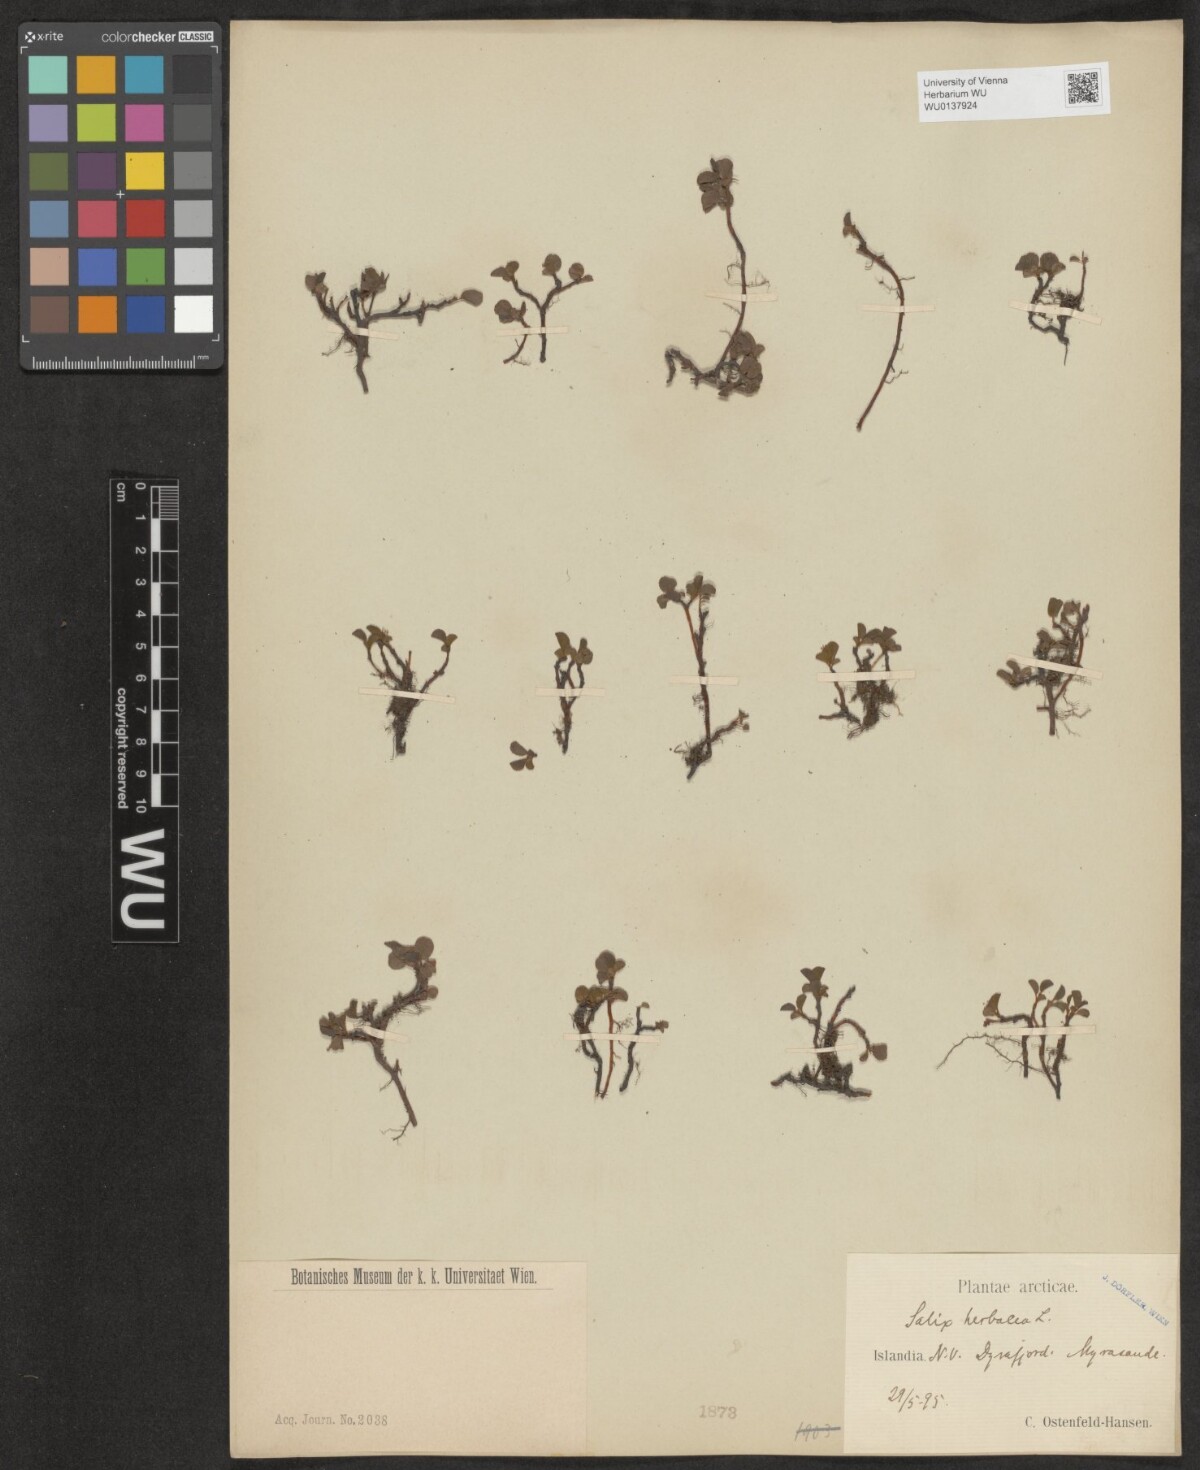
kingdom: Plantae
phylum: Tracheophyta
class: Magnoliopsida
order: Malpighiales
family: Salicaceae
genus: Salix
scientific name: Salix herbacea
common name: Dwarf willow
